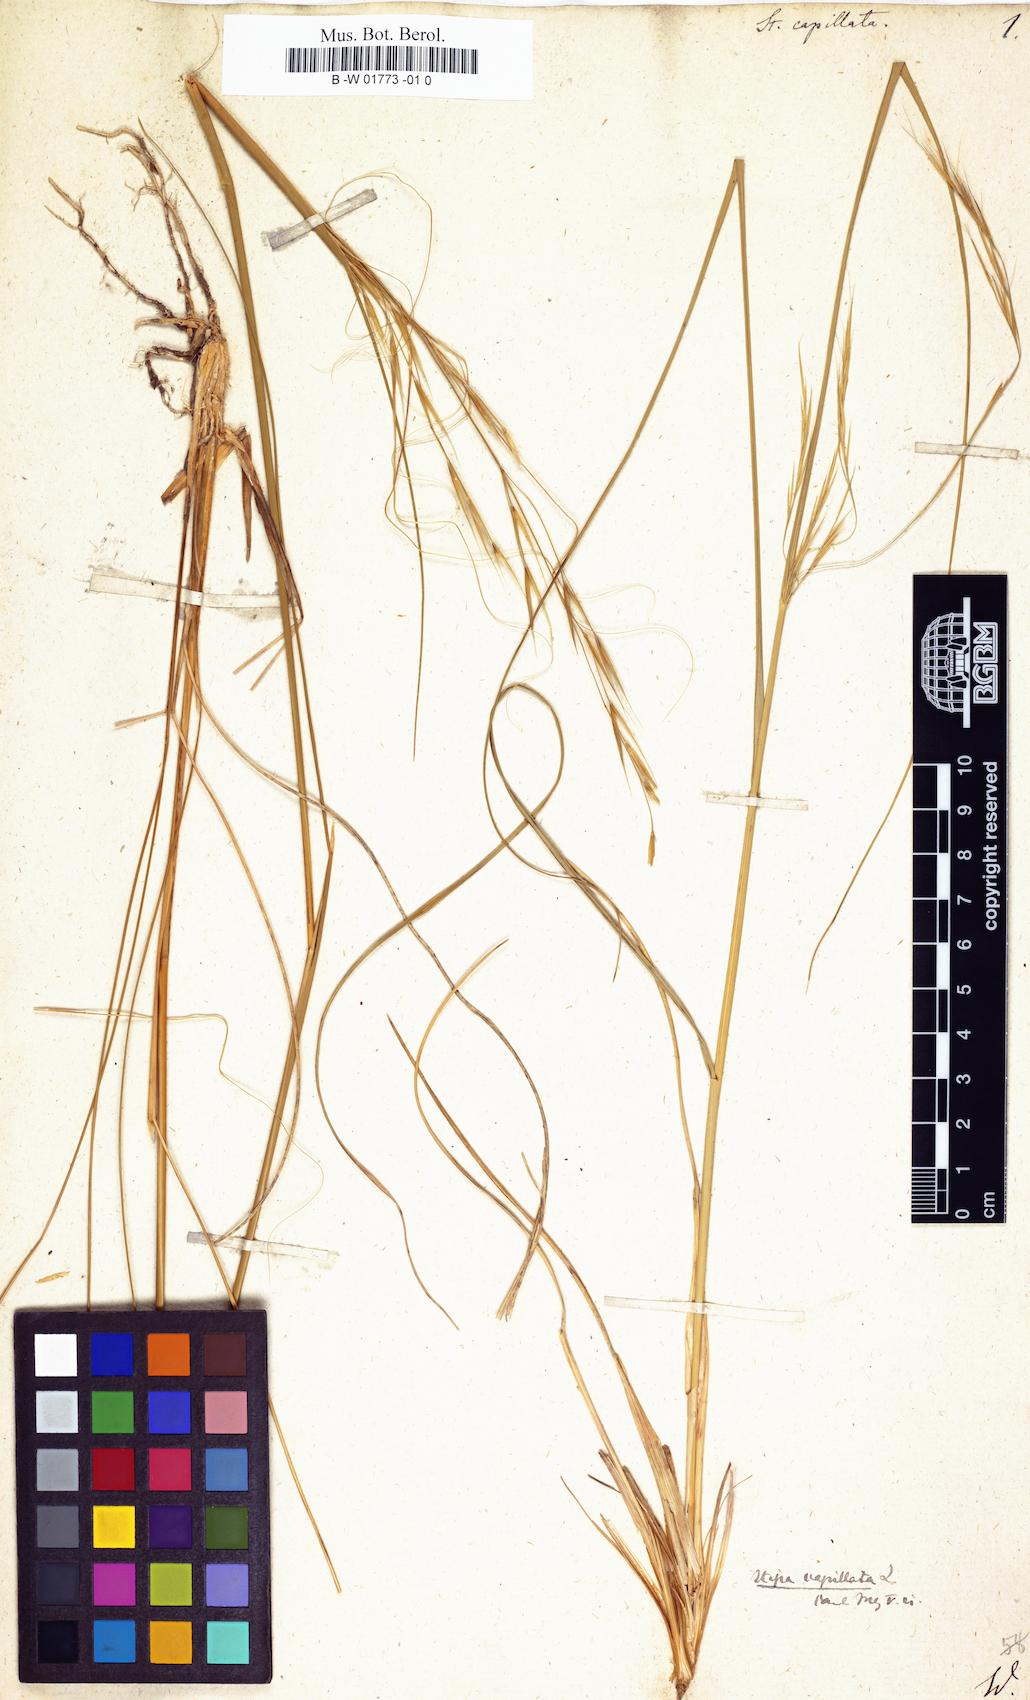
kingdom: Plantae
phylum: Tracheophyta
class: Liliopsida
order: Poales
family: Poaceae
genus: Stipa
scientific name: Stipa capillata
